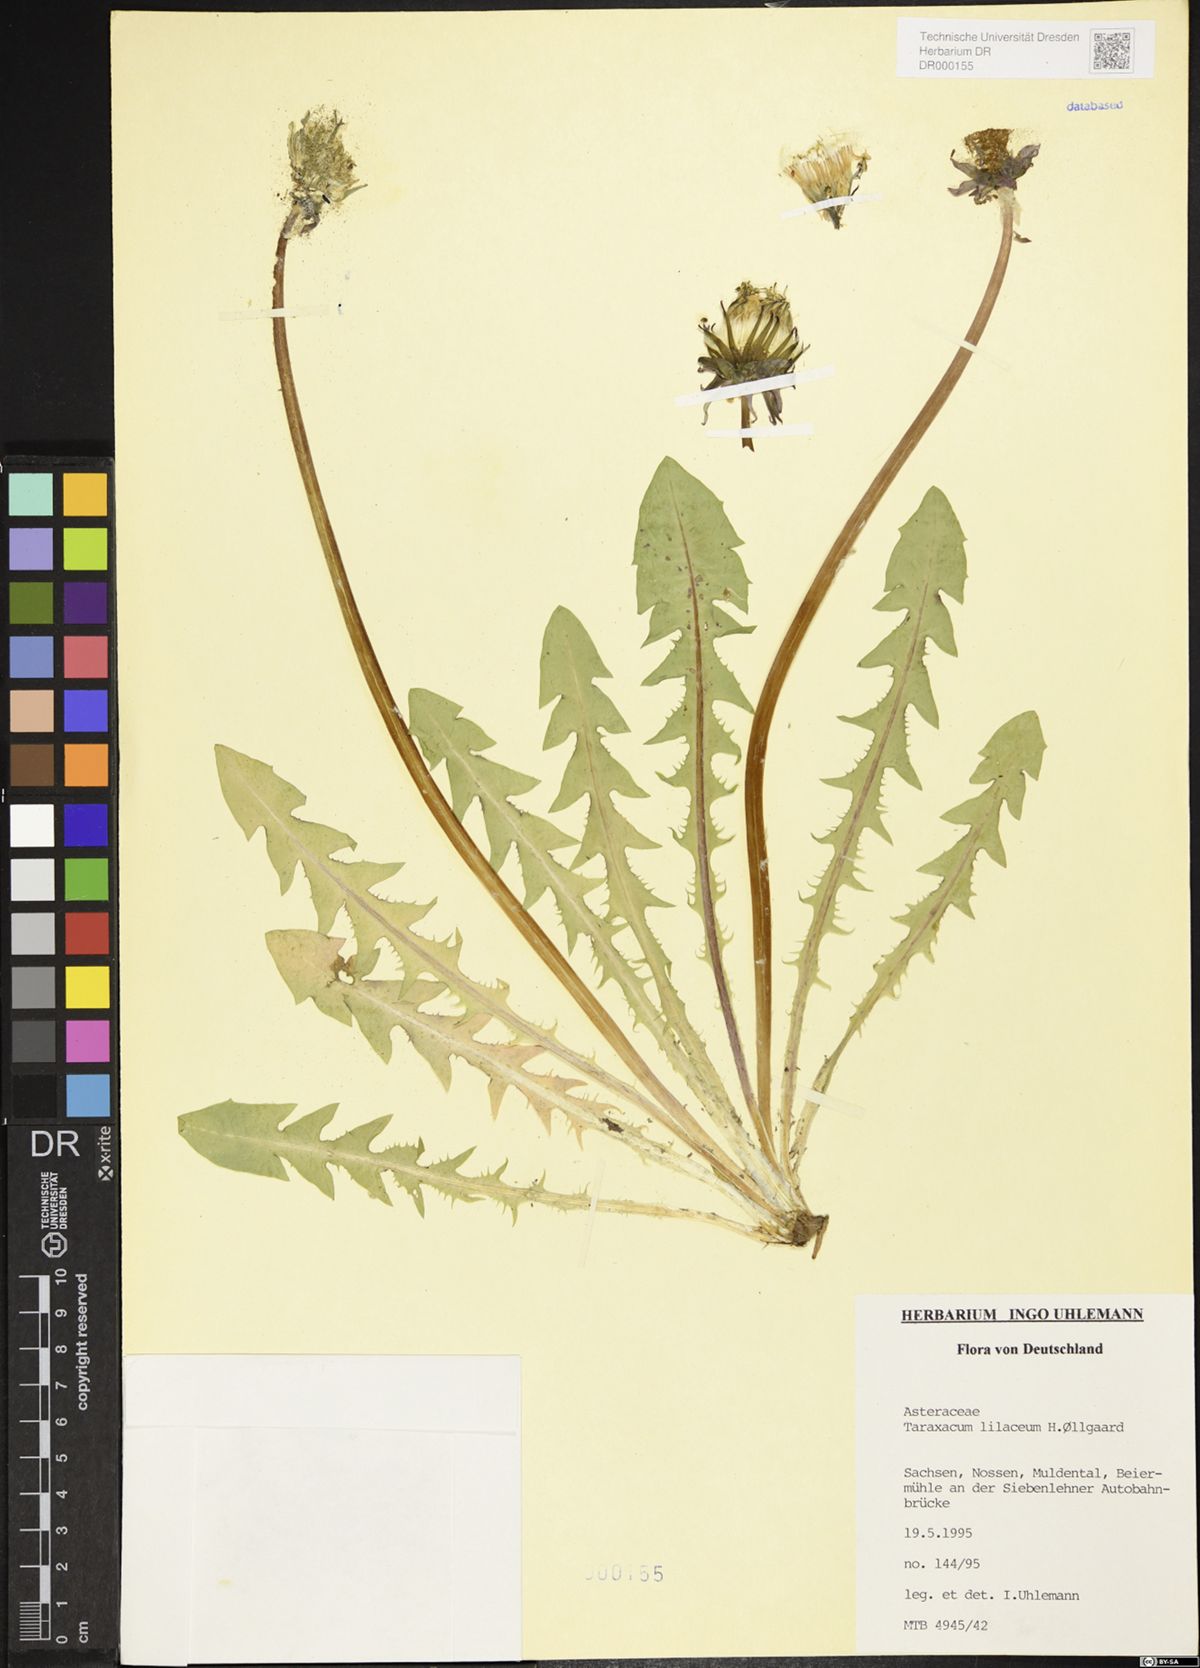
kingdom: Plantae
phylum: Tracheophyta
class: Magnoliopsida
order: Asterales
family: Asteraceae
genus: Taraxacum
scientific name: Taraxacum floccosum
